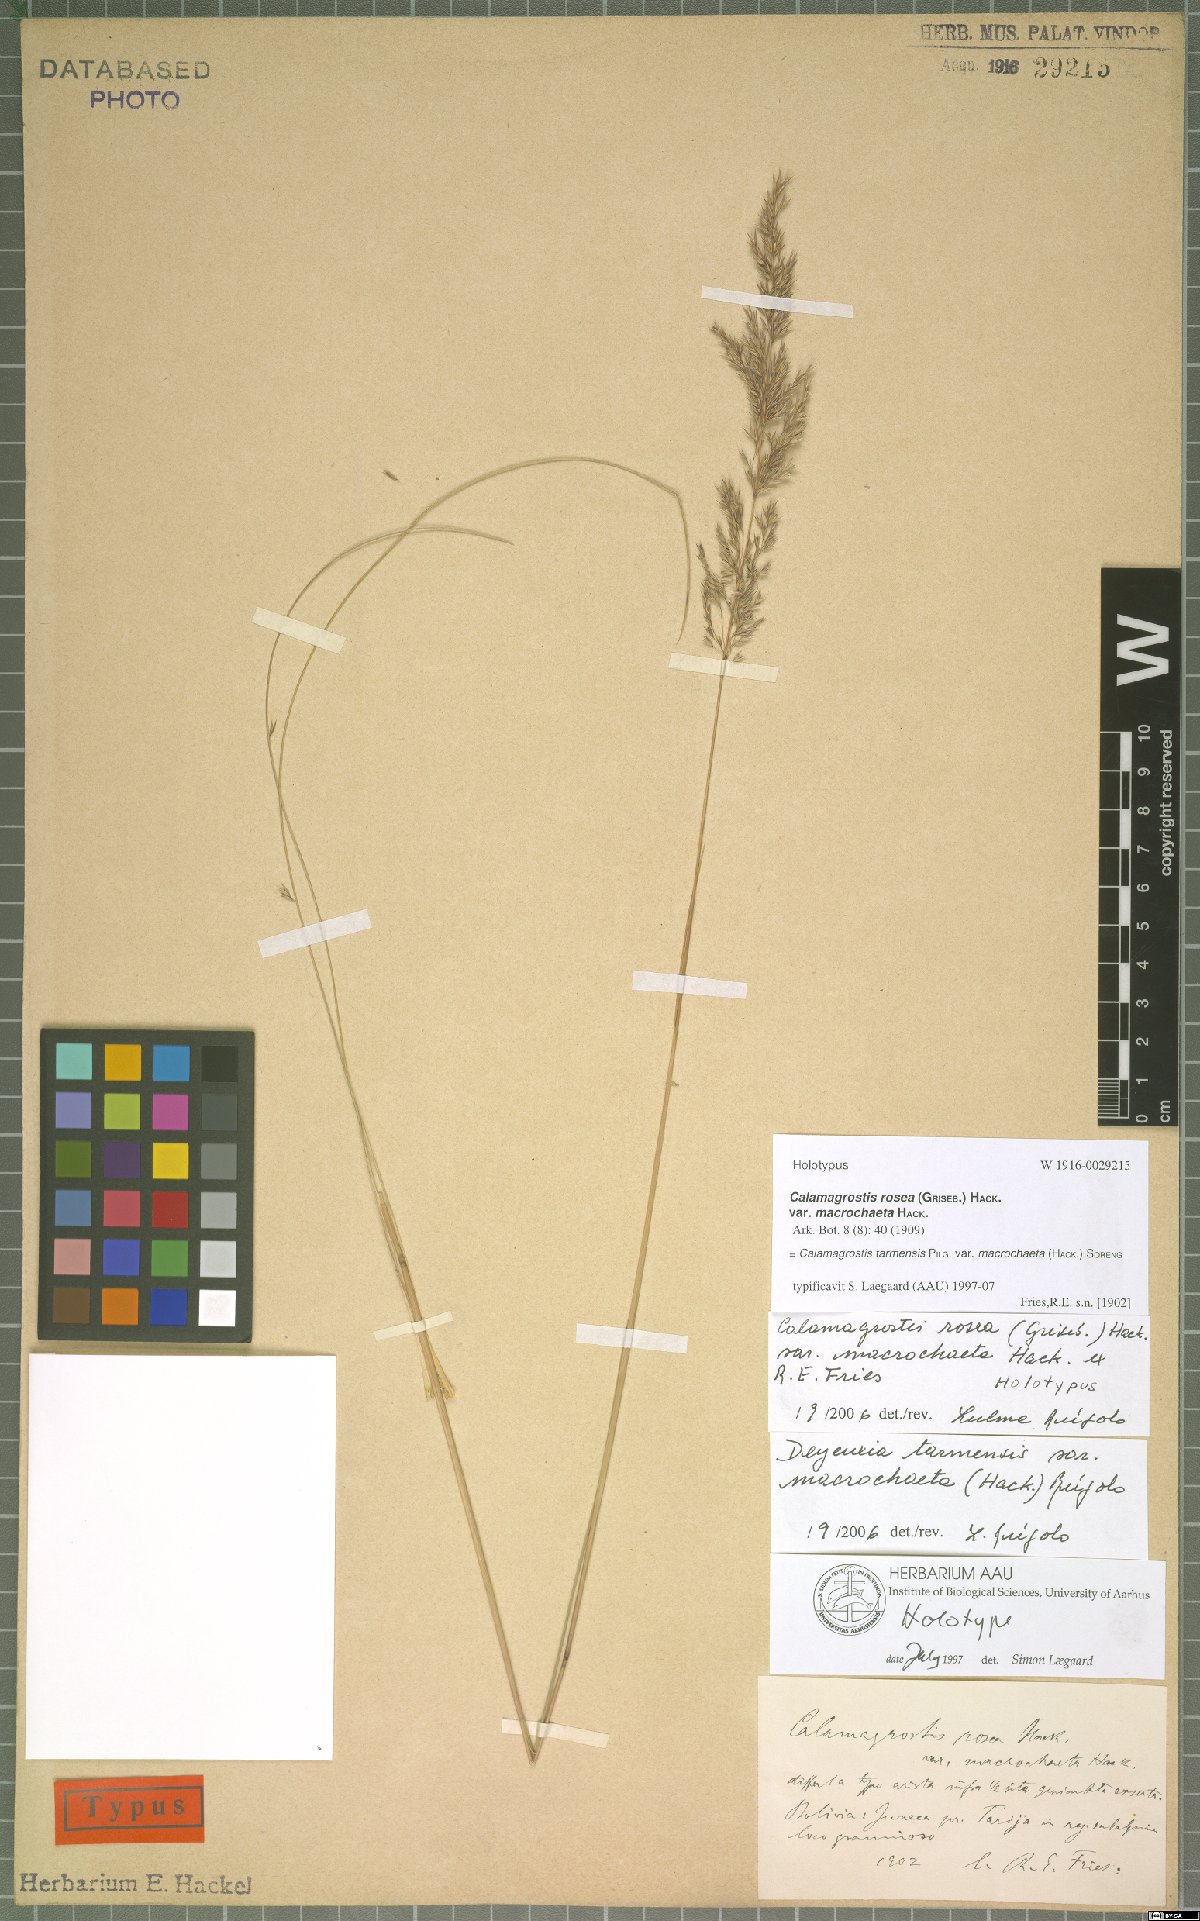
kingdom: Plantae
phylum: Tracheophyta
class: Liliopsida
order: Poales
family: Poaceae
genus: Cinnagrostis
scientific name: Cinnagrostis tarmensis
